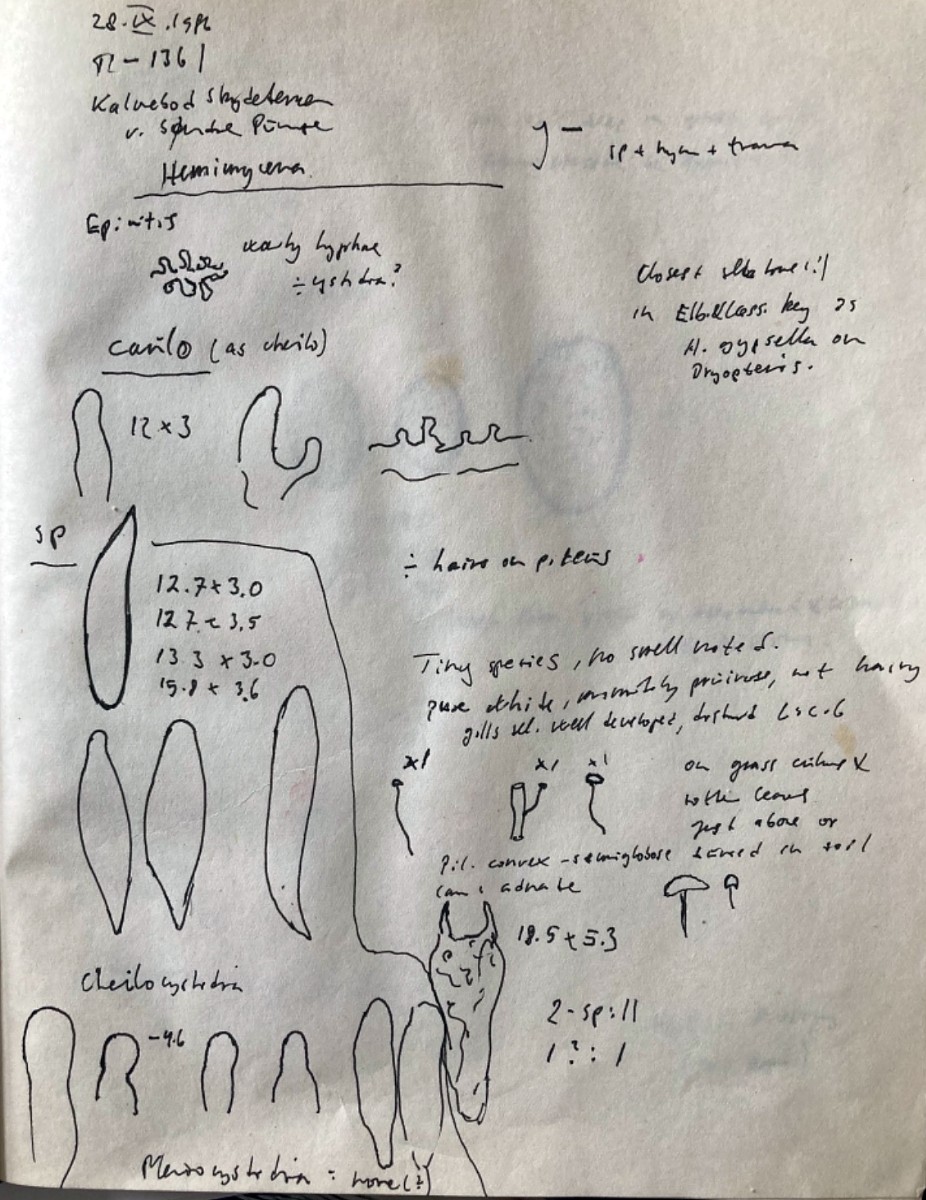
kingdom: Fungi
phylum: Basidiomycota
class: Agaricomycetes
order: Agaricales
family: Mycenaceae
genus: Hemimycena
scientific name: Hemimycena
